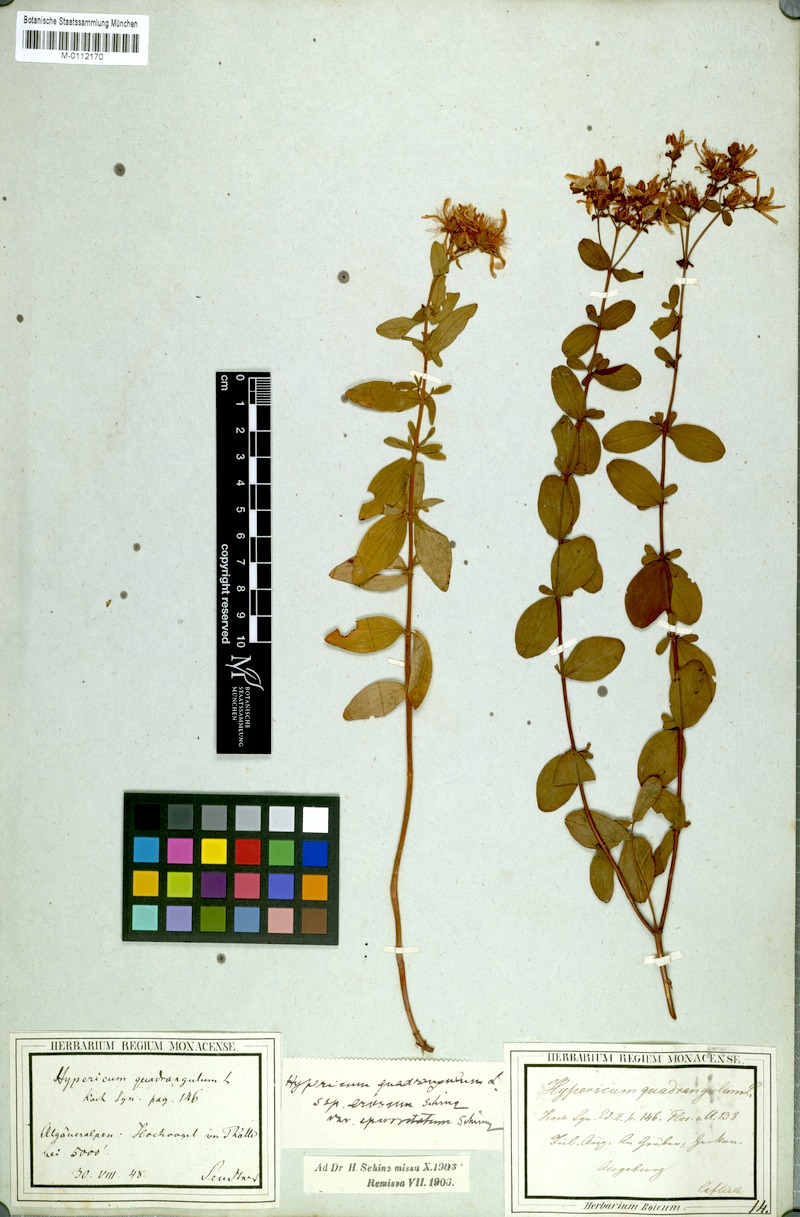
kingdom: Plantae
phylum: Tracheophyta
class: Magnoliopsida
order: Malpighiales
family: Hypericaceae
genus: Hypericum
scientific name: Hypericum tetrapterum
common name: Square-stalked st. john's-wort
